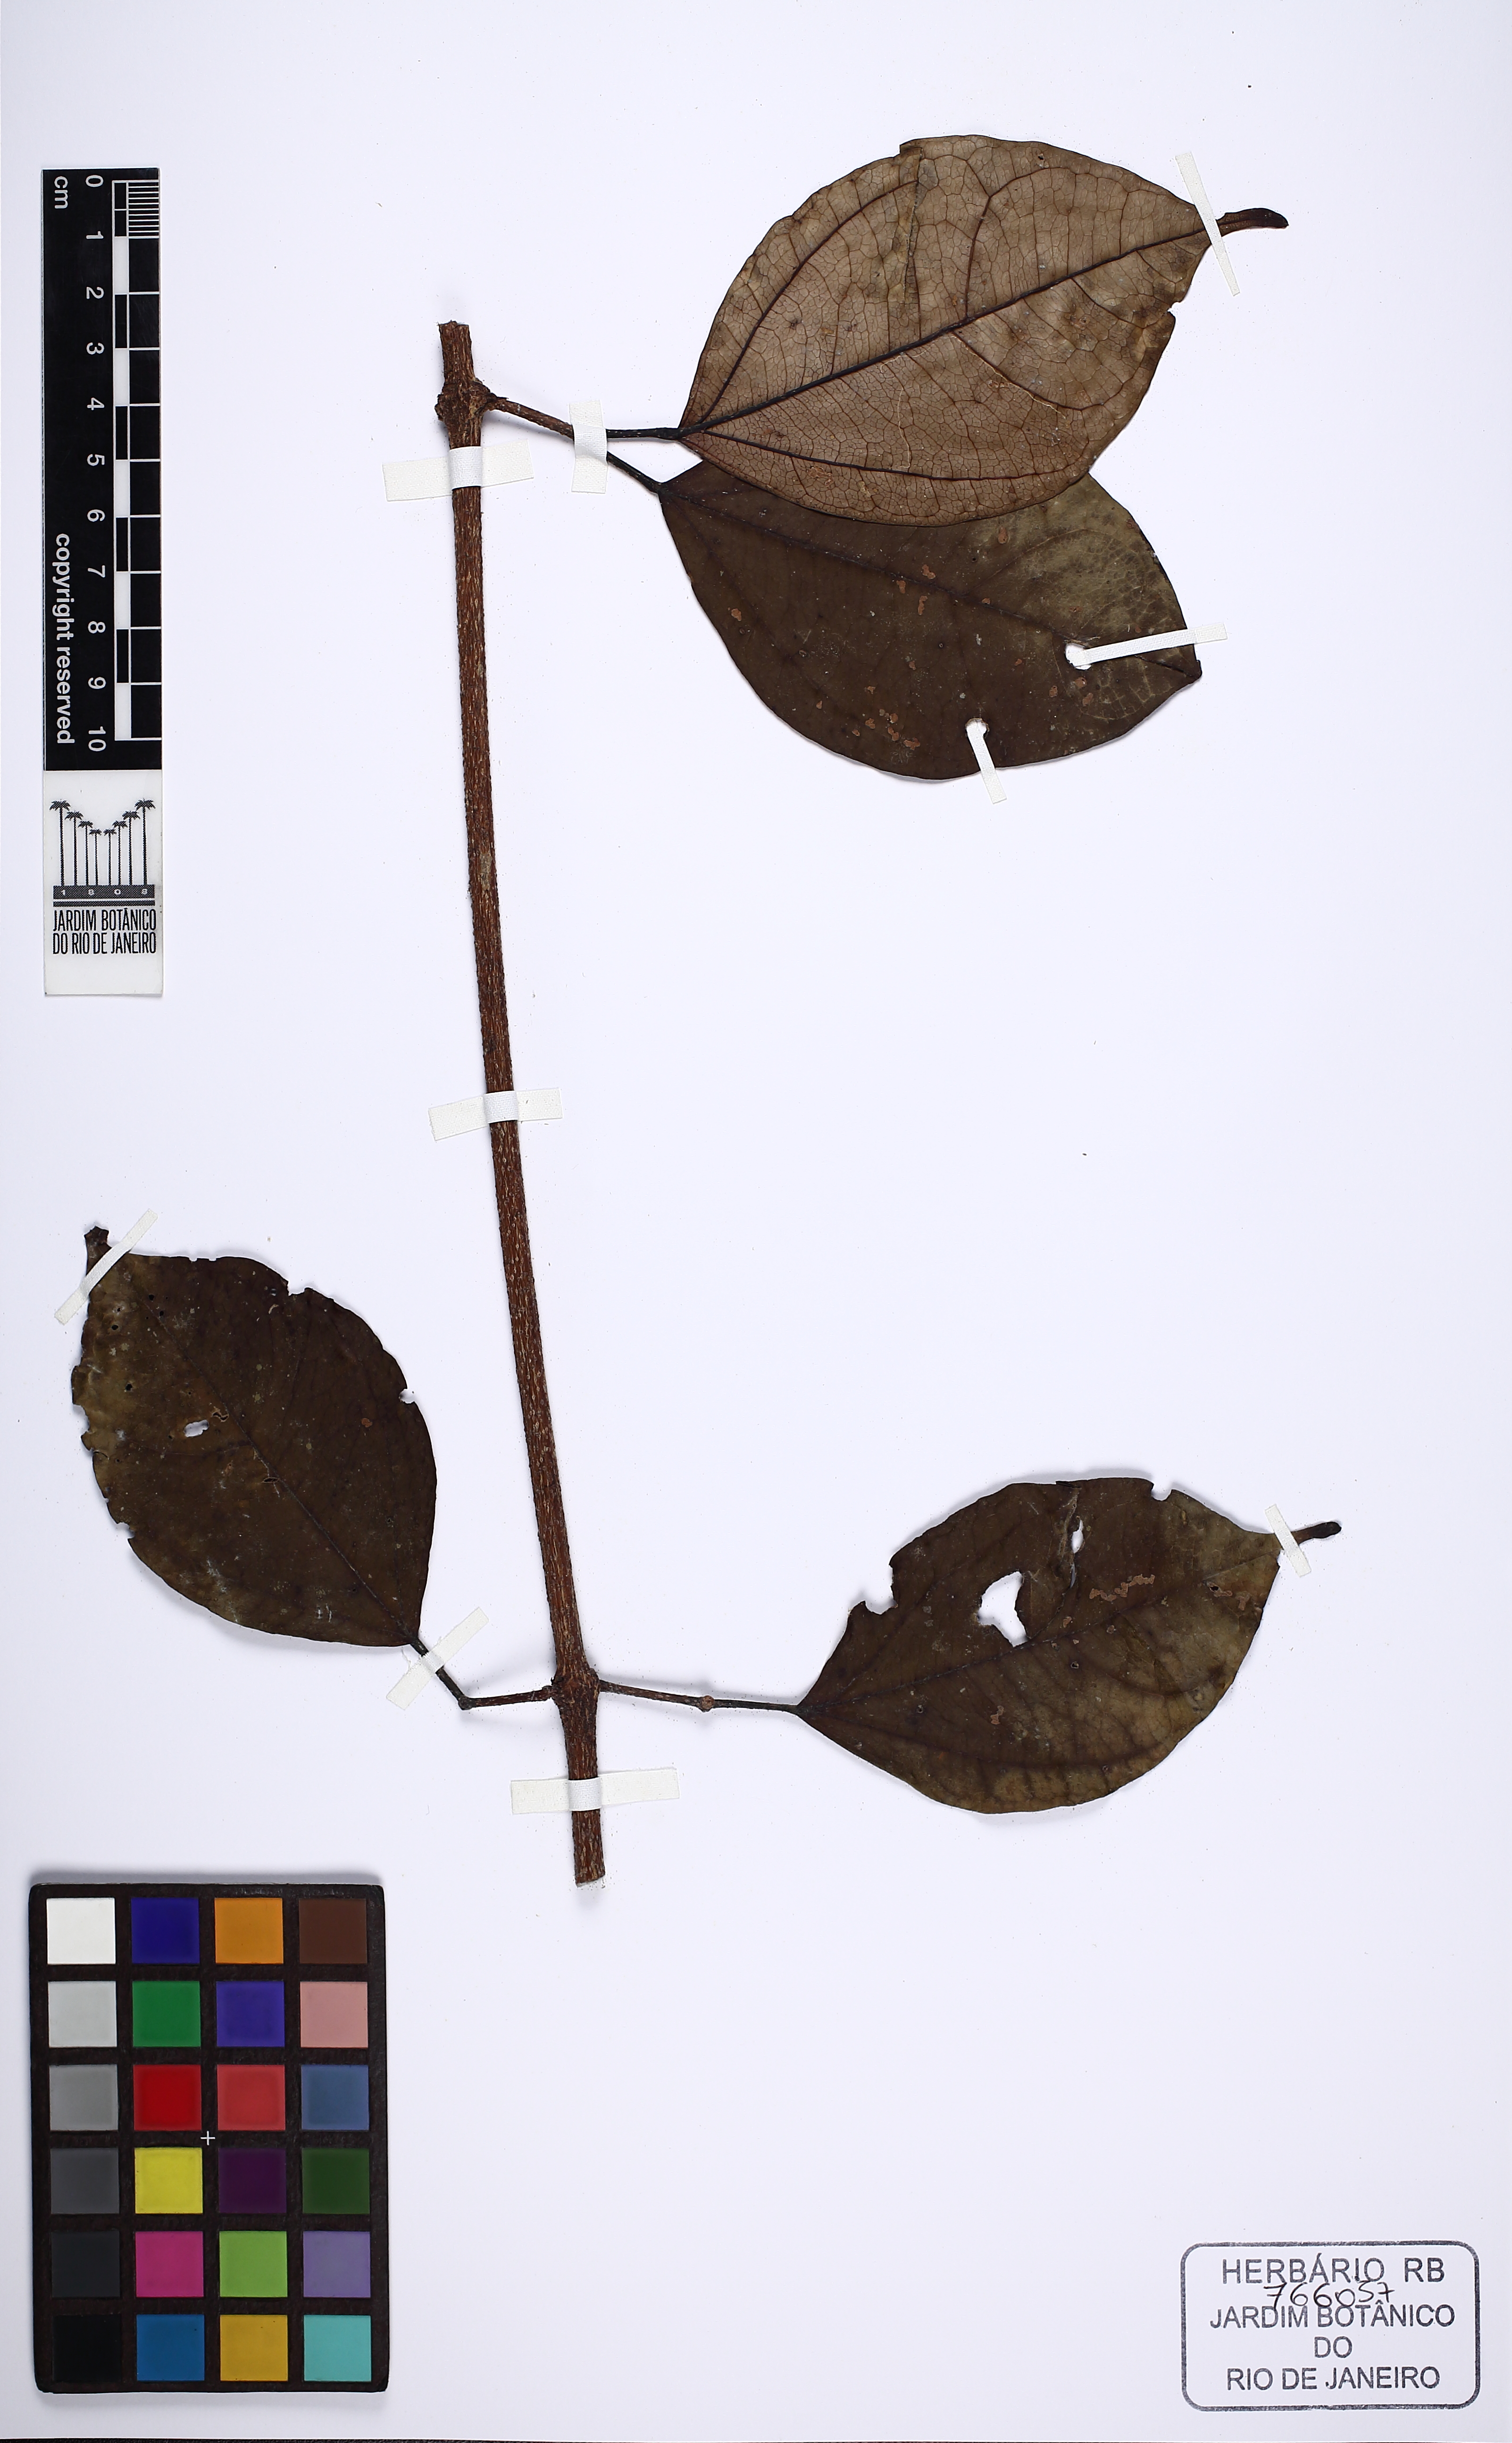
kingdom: Plantae
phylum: Tracheophyta
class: Magnoliopsida
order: Lamiales
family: Bignoniaceae
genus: Fridericia
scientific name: Fridericia japurensis
